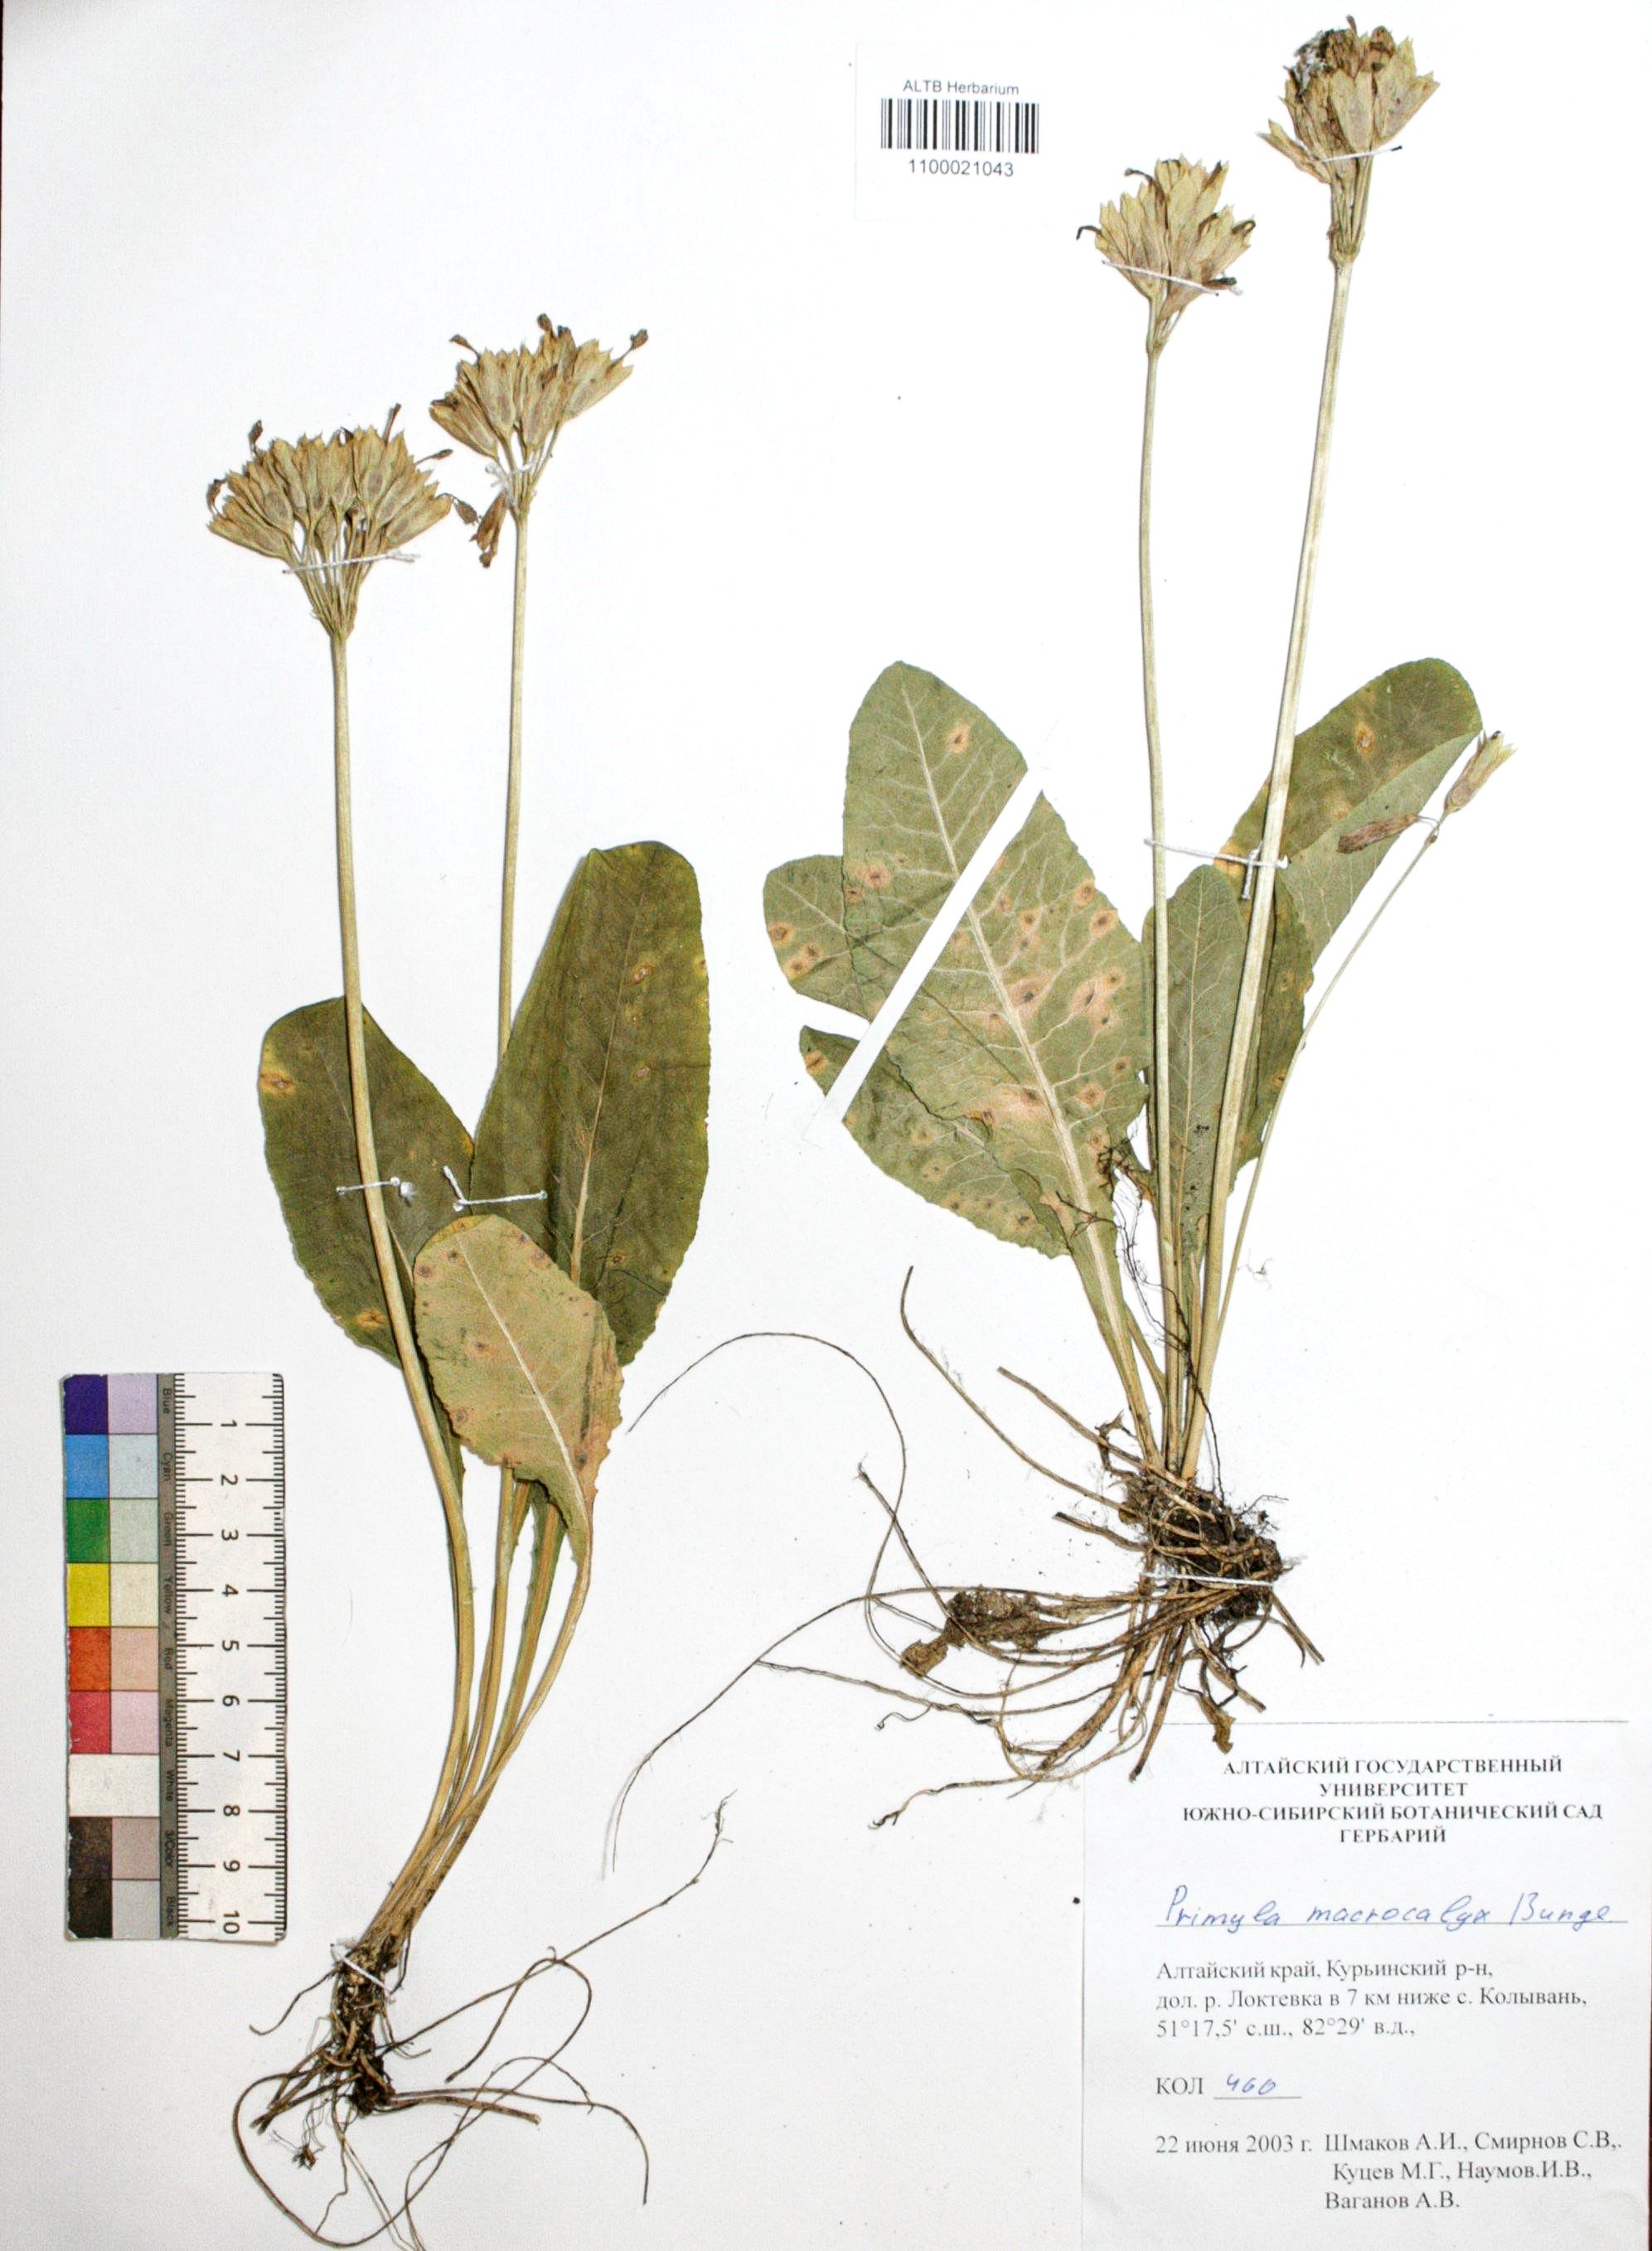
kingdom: Plantae
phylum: Tracheophyta
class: Magnoliopsida
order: Ericales
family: Primulaceae
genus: Primula
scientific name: Primula veris
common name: Cowslip
